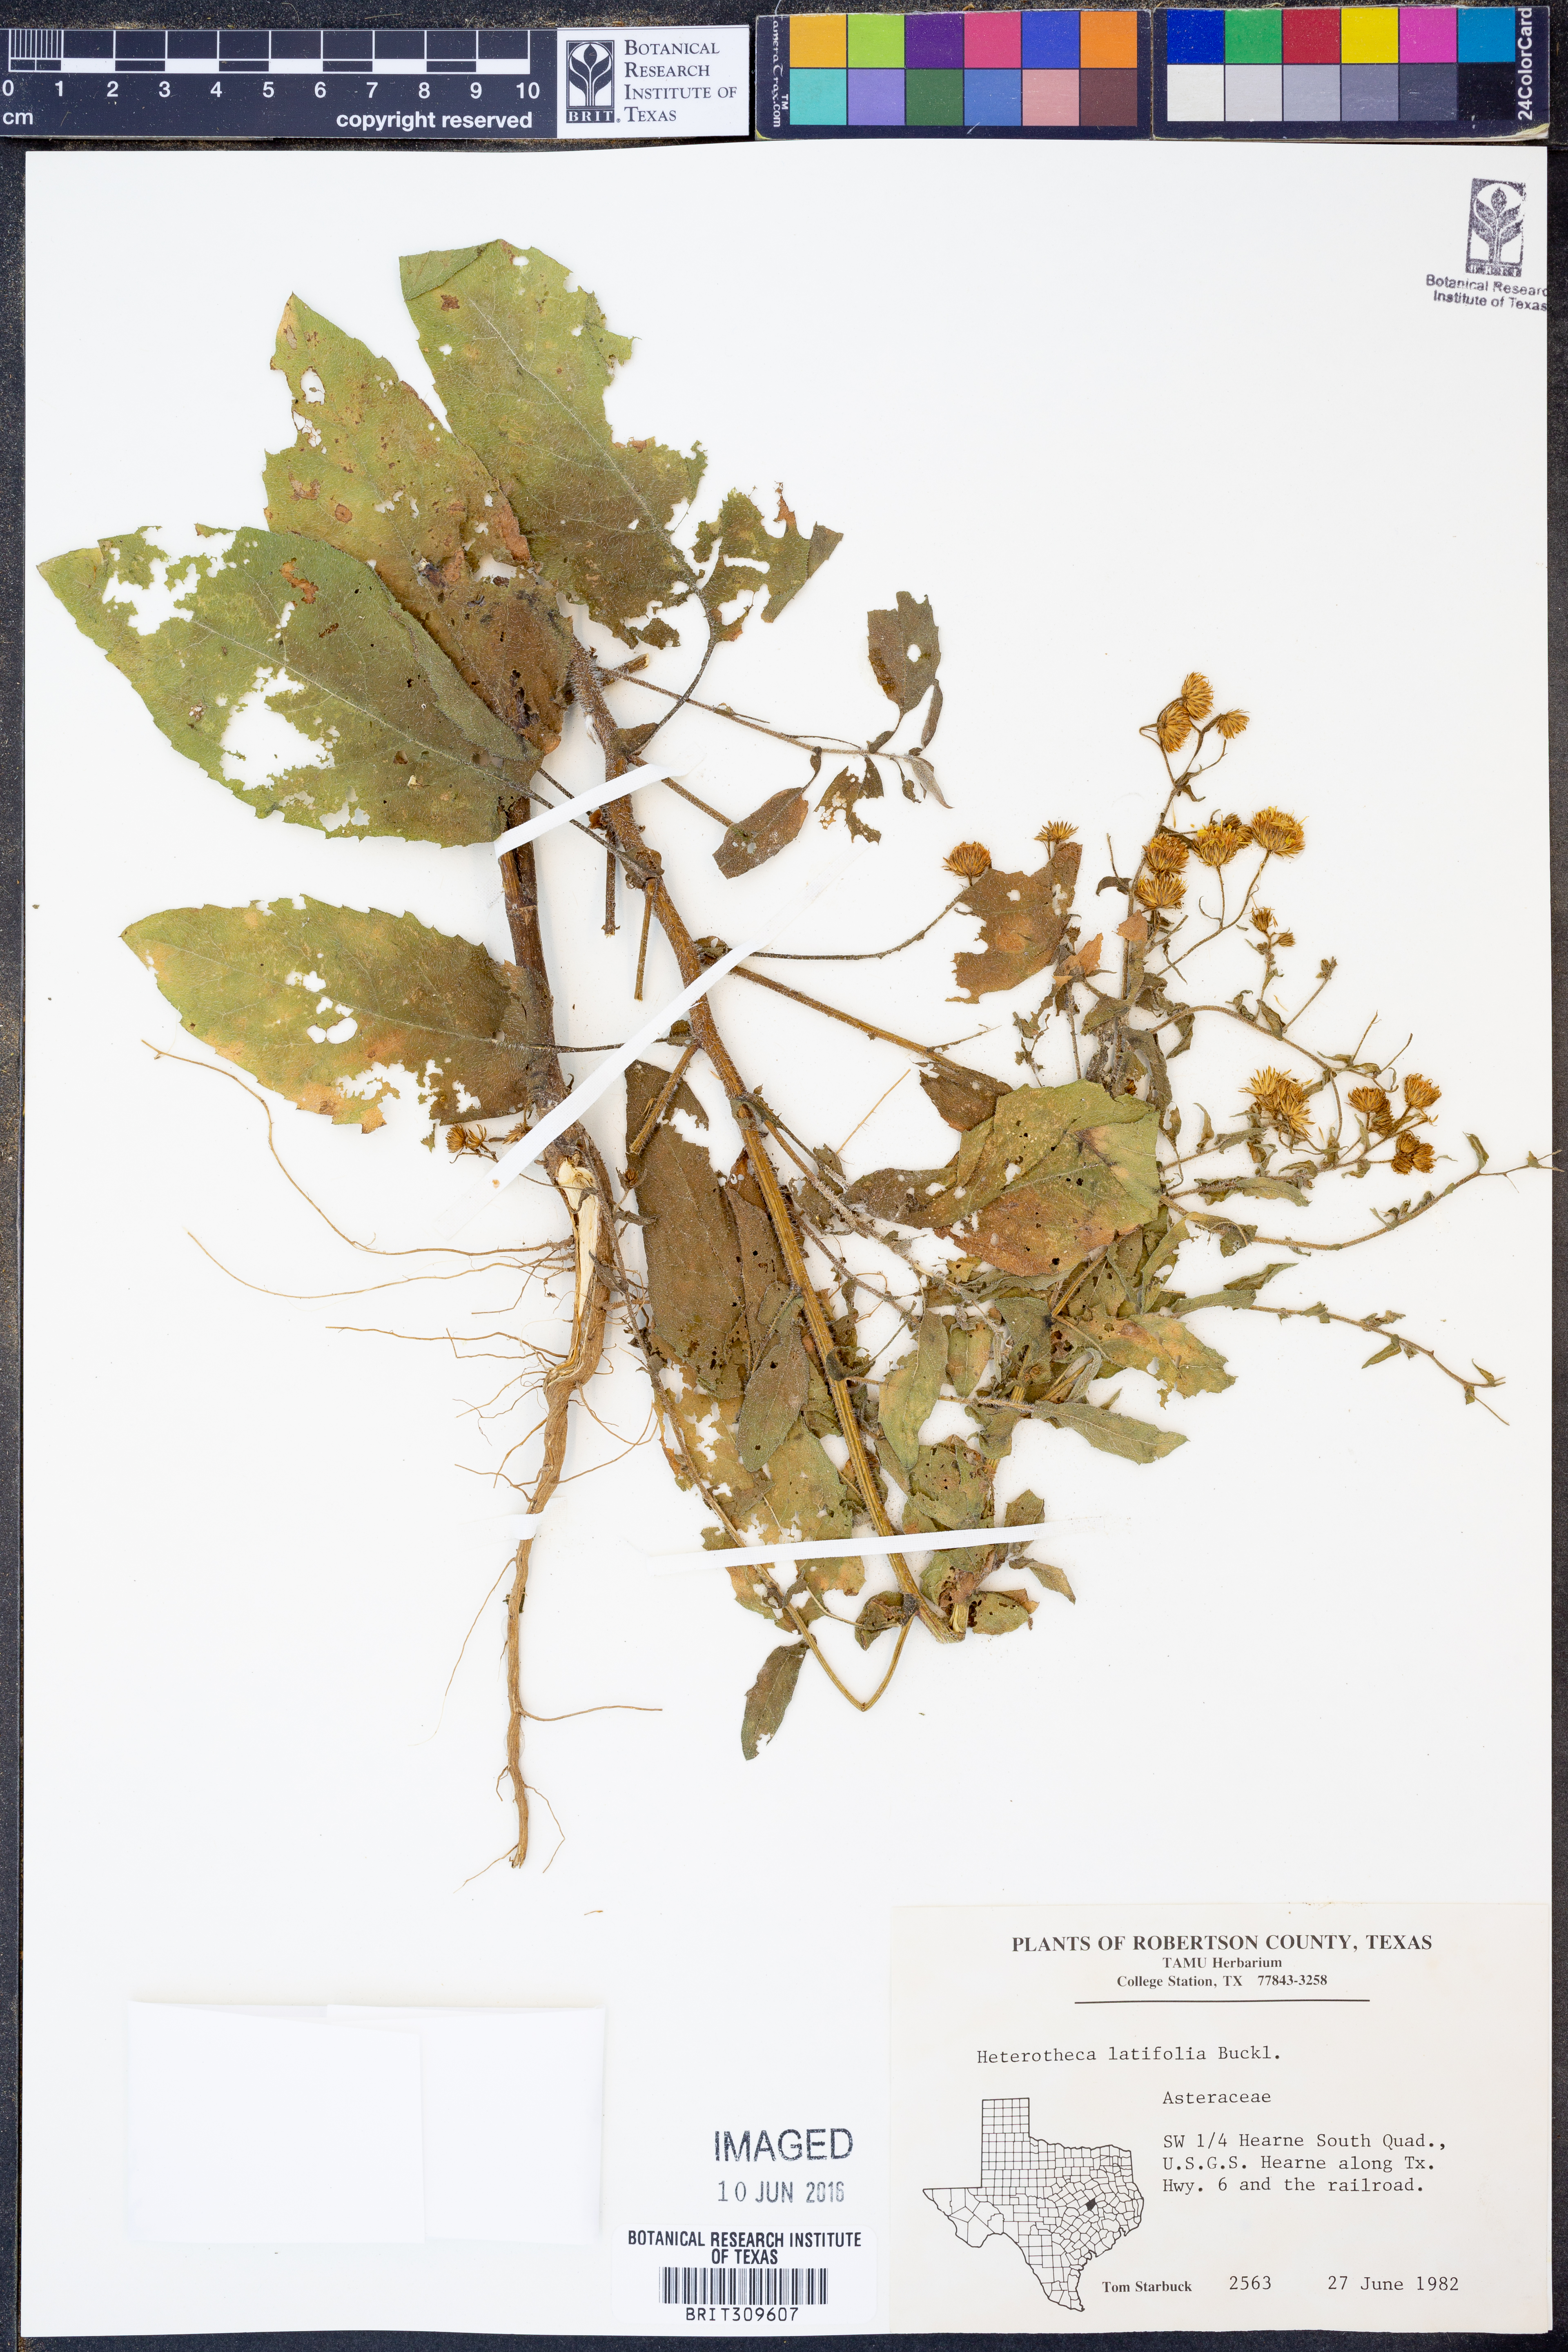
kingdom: Plantae
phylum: Tracheophyta
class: Magnoliopsida
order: Asterales
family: Asteraceae
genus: Heterotheca
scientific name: Heterotheca subaxillaris
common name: Camphorweed
